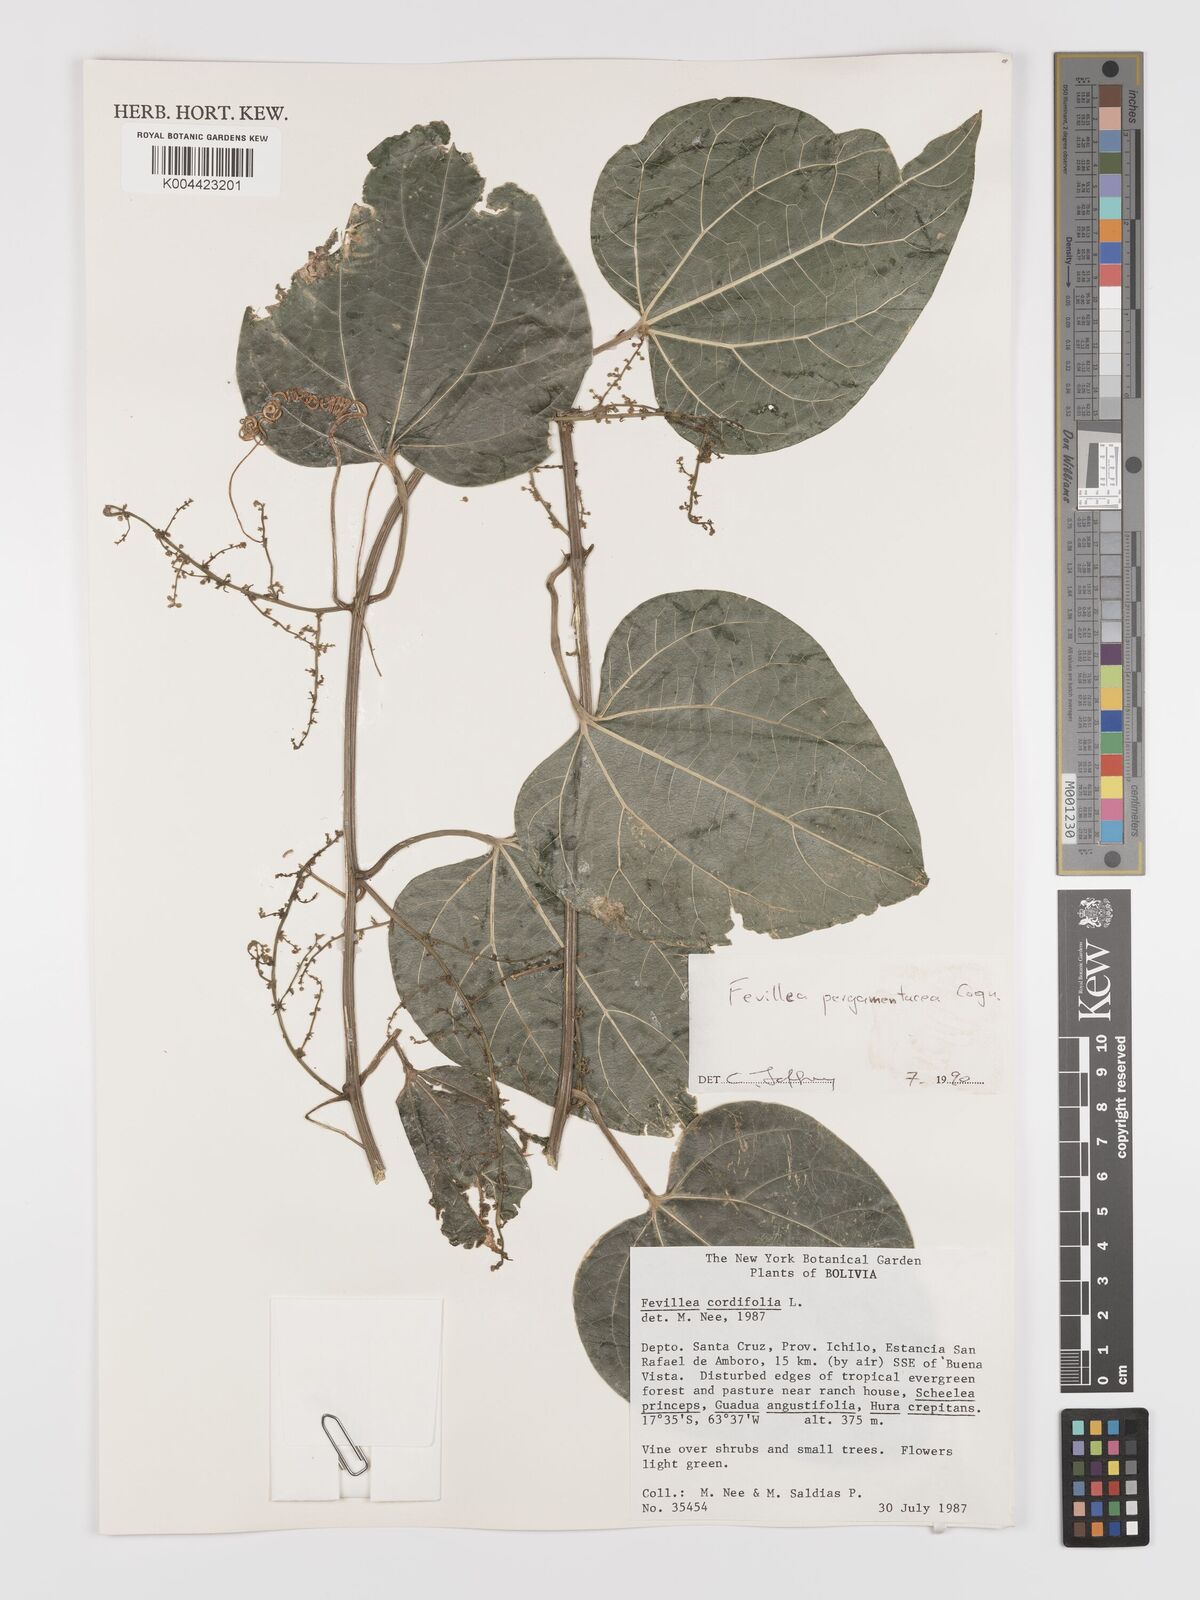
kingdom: Plantae
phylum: Tracheophyta
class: Magnoliopsida
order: Cucurbitales
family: Cucurbitaceae
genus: Fevillea
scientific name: Fevillea pergamentacea
